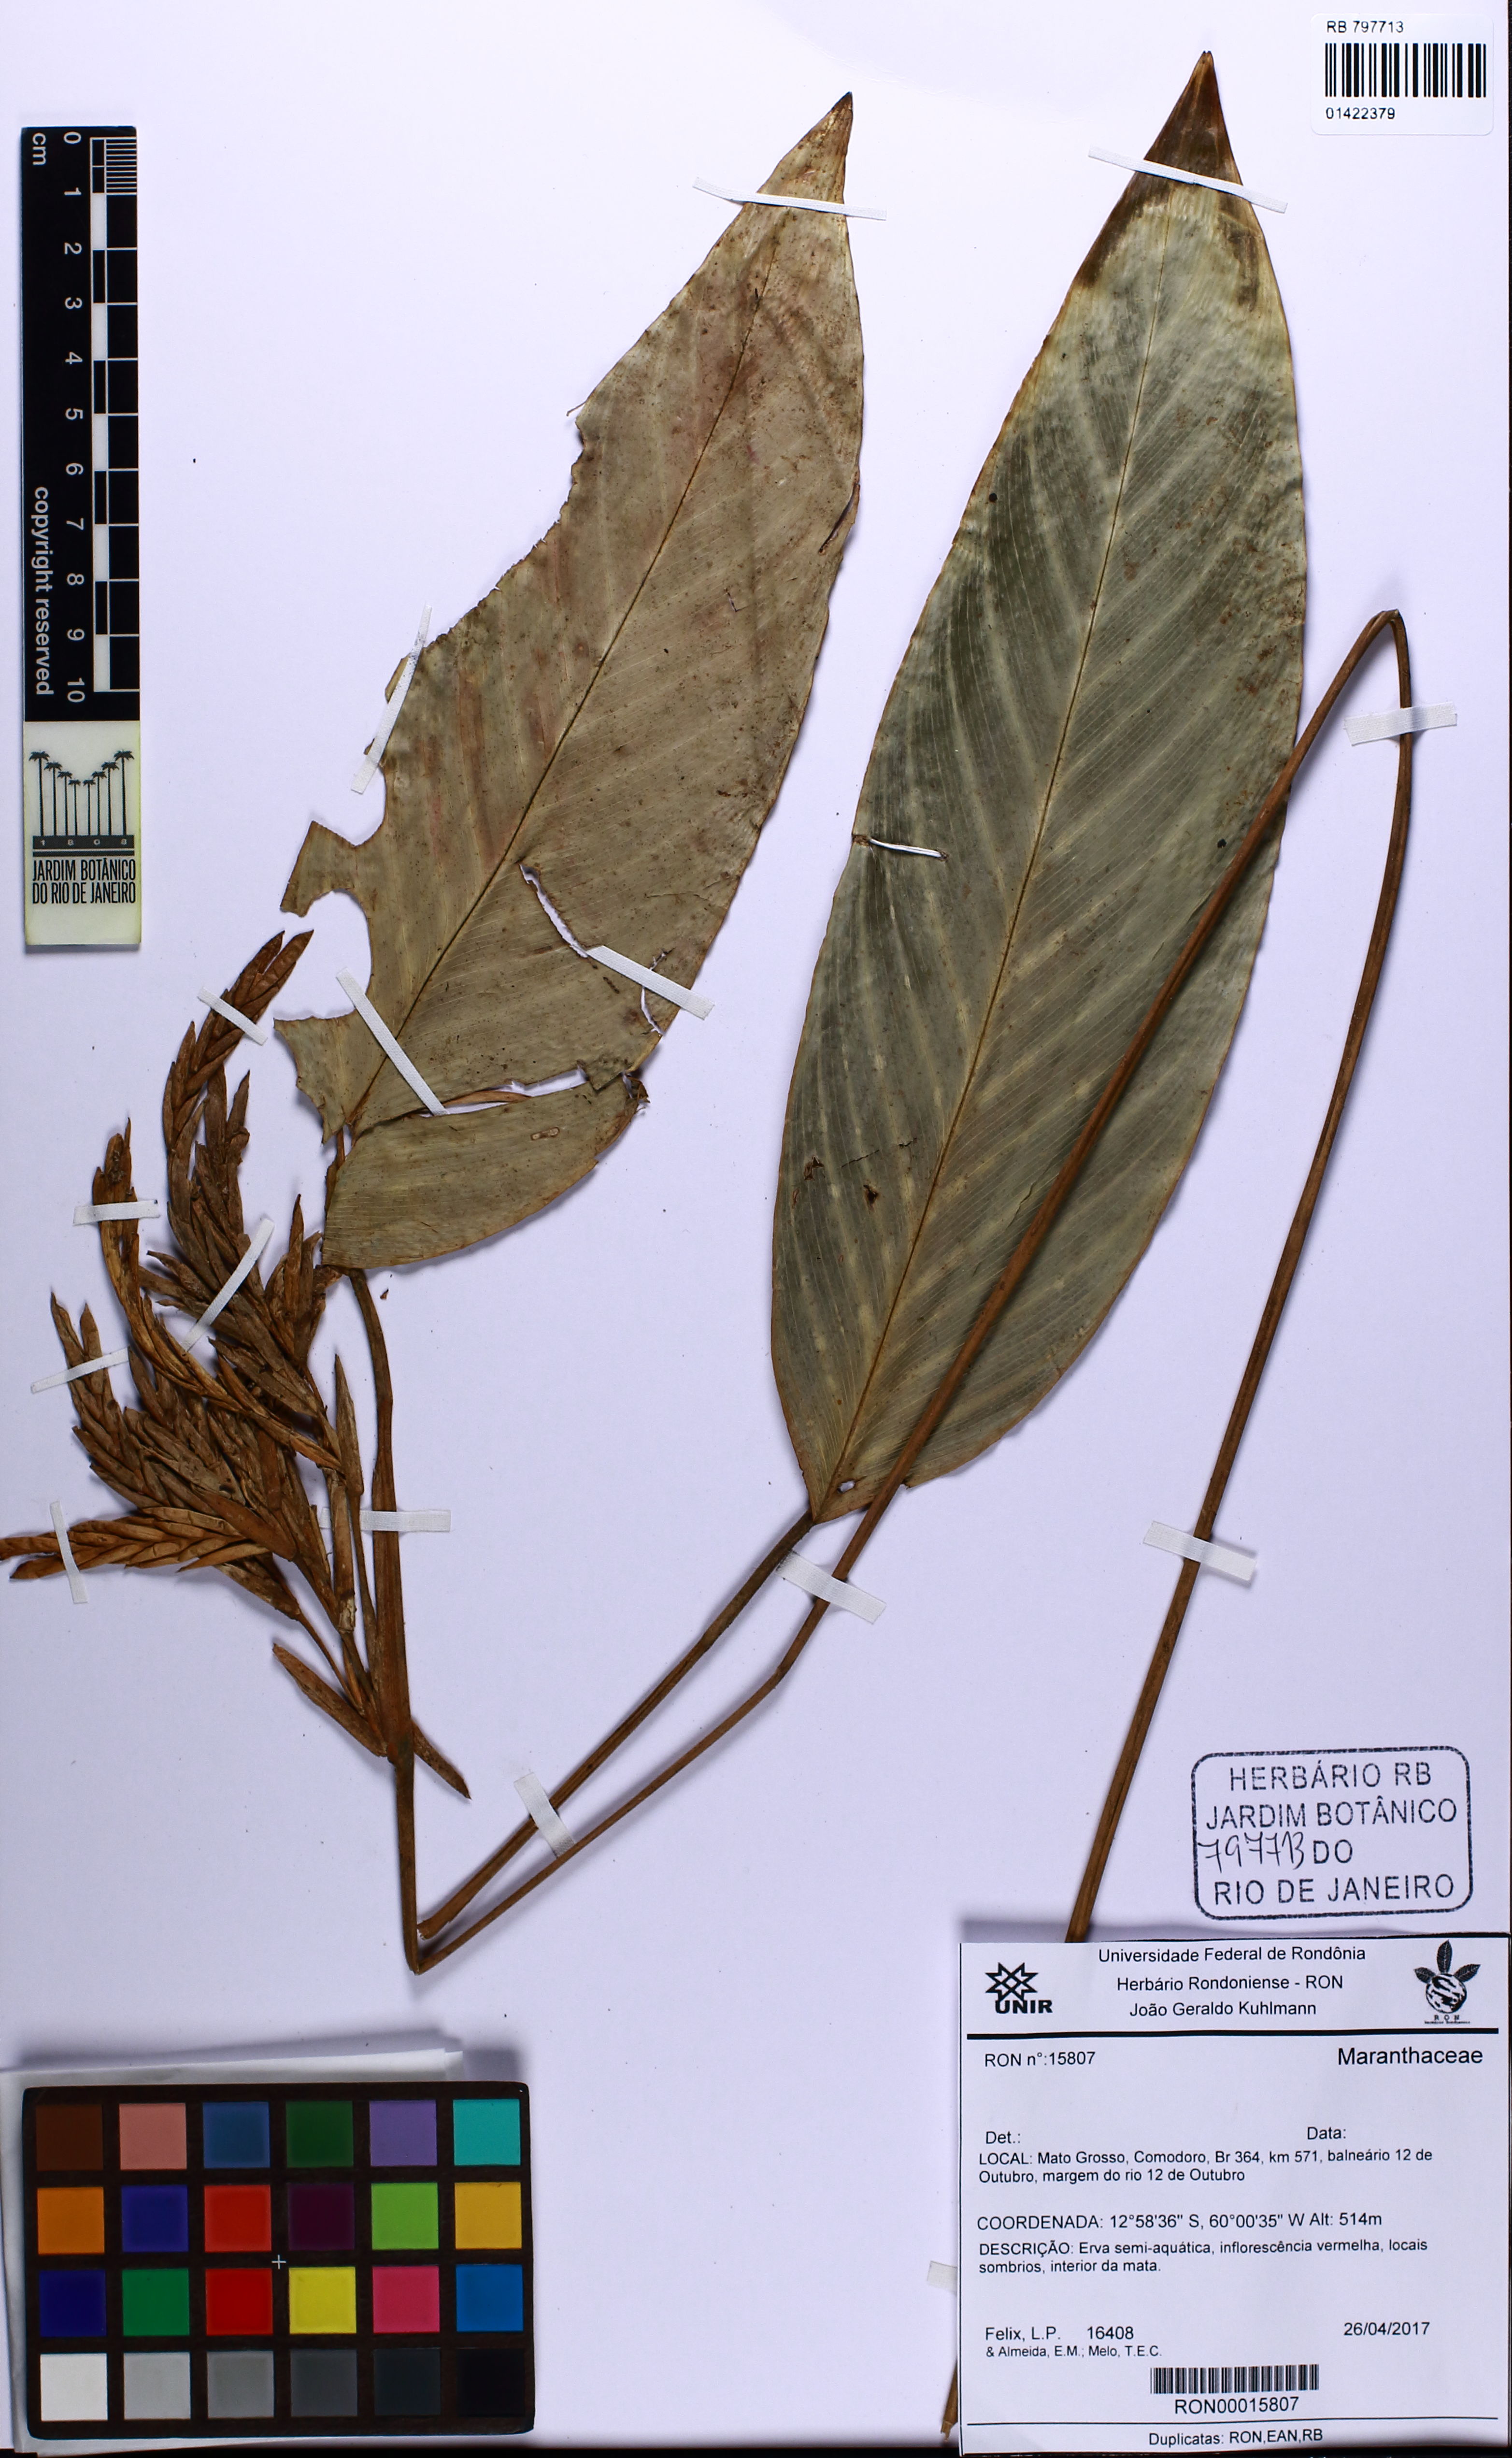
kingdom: Plantae
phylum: Tracheophyta
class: Liliopsida
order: Zingiberales
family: Marantaceae
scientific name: Marantaceae
